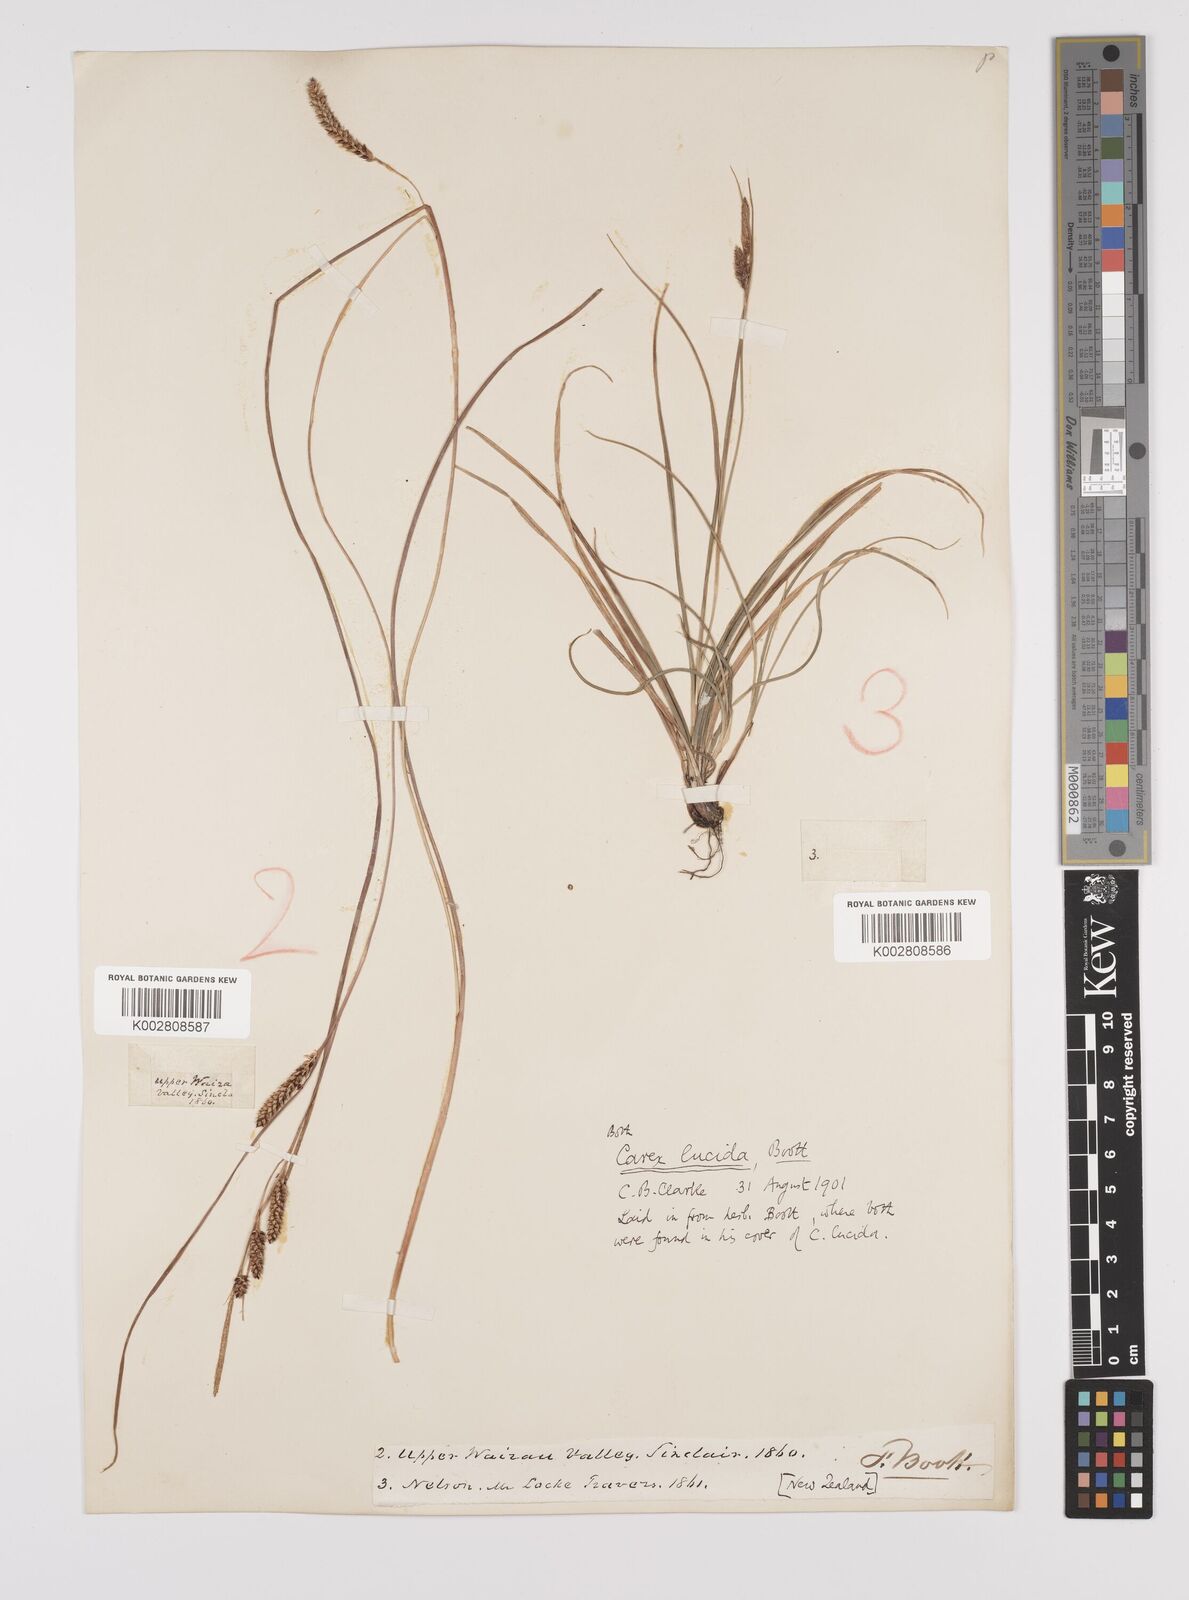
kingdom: Plantae
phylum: Tracheophyta
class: Liliopsida
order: Poales
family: Cyperaceae
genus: Carex
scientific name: Carex flagellifera
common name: Glen murray tussock
